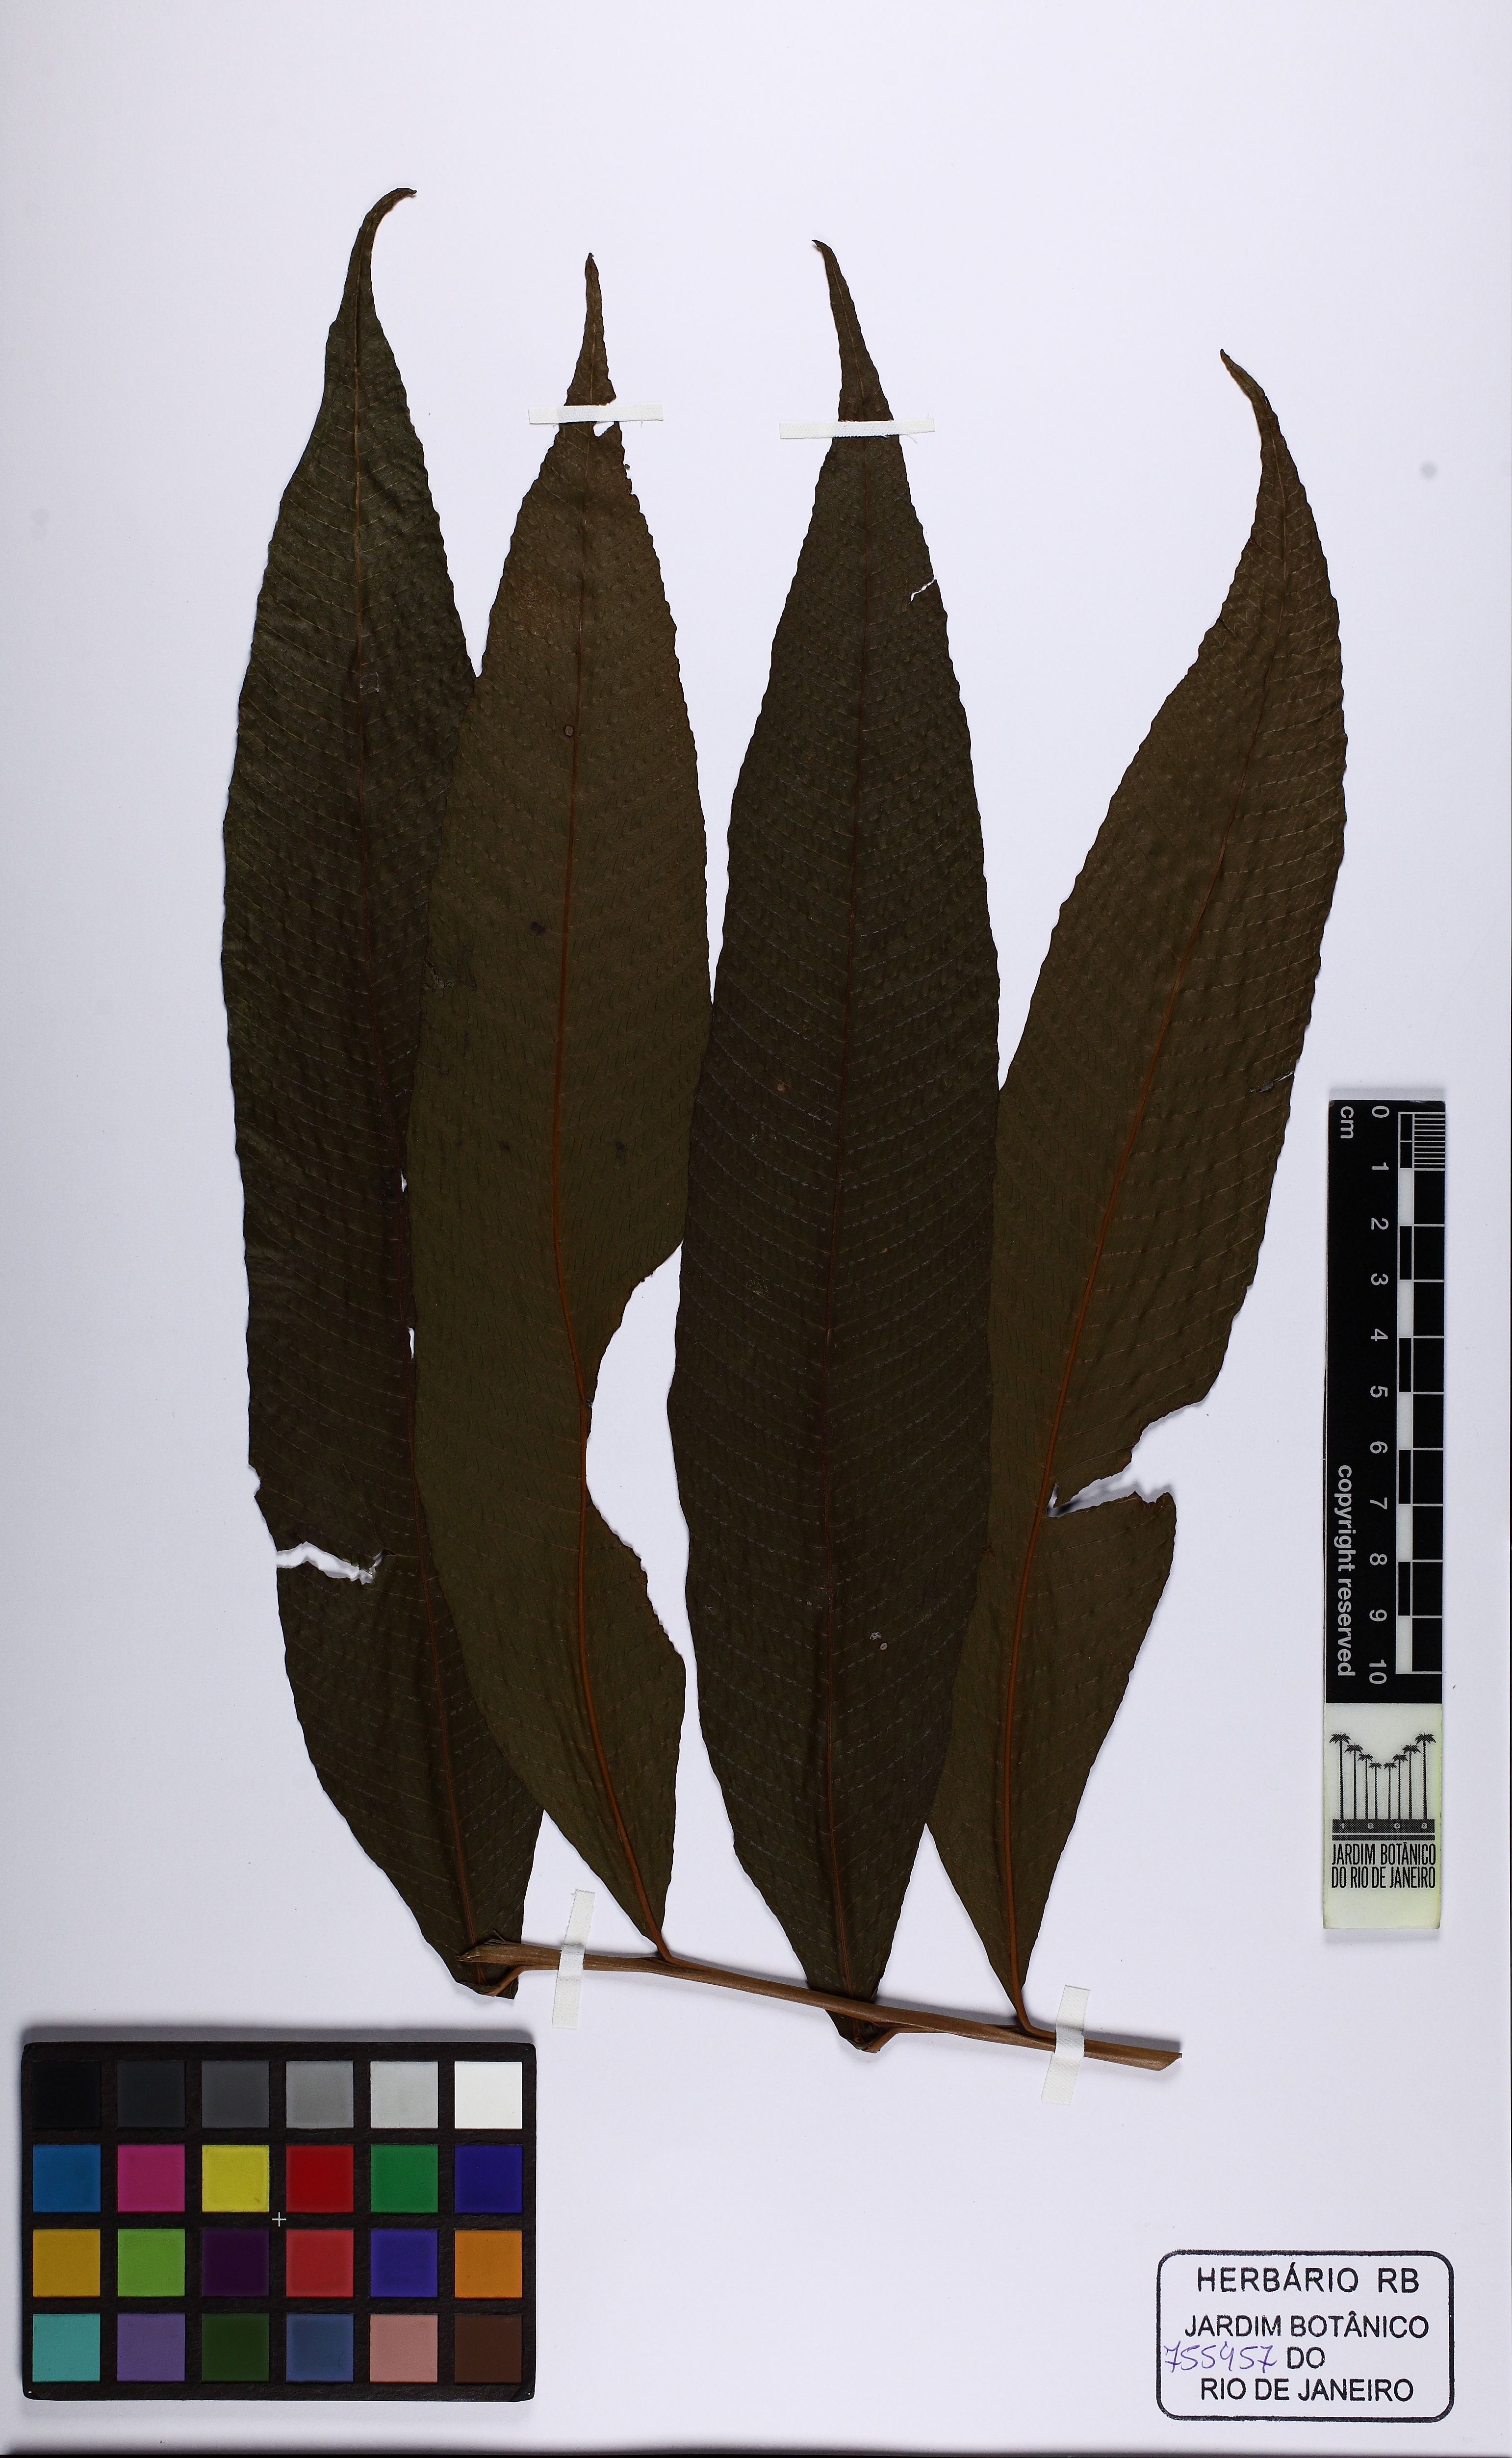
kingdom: Plantae
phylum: Tracheophyta
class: Polypodiopsida
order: Polypodiales
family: Thelypteridaceae
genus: Meniscium
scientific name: Meniscium macrophyllum
